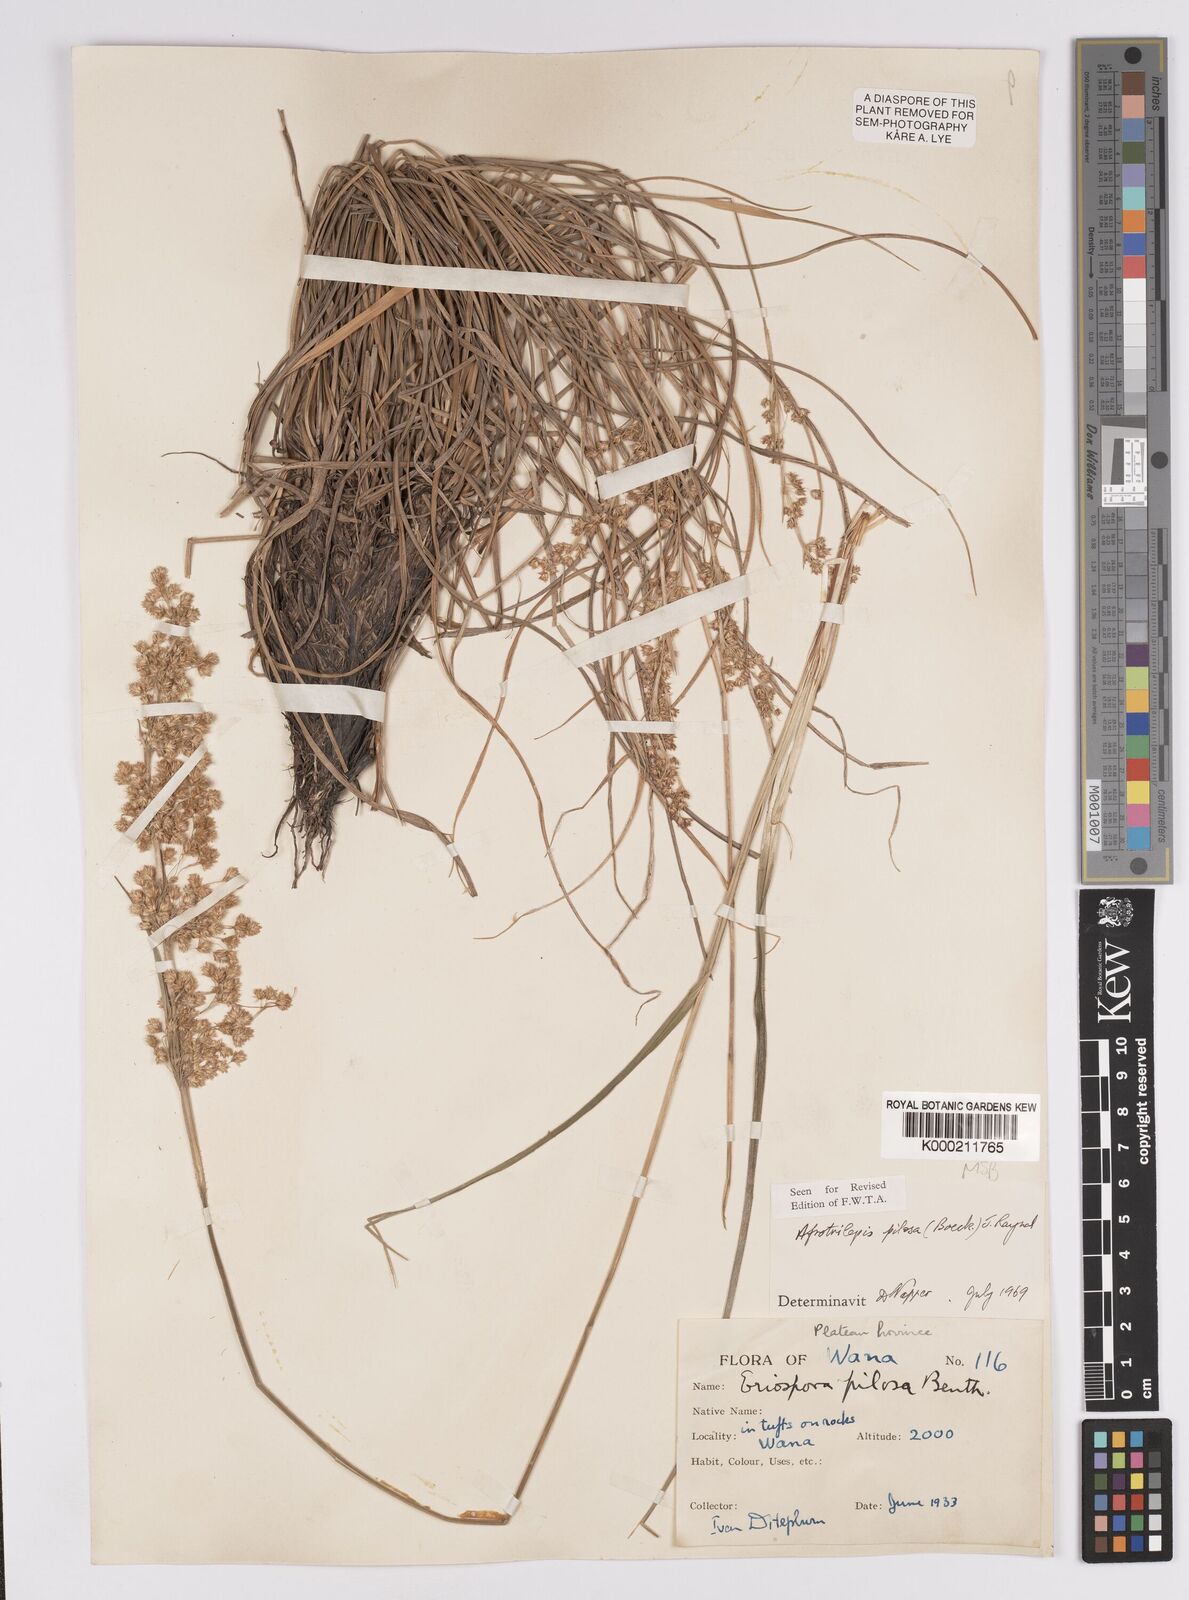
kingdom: Plantae
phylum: Tracheophyta
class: Liliopsida
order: Poales
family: Cyperaceae
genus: Afrotrilepis
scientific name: Afrotrilepis pilosa
